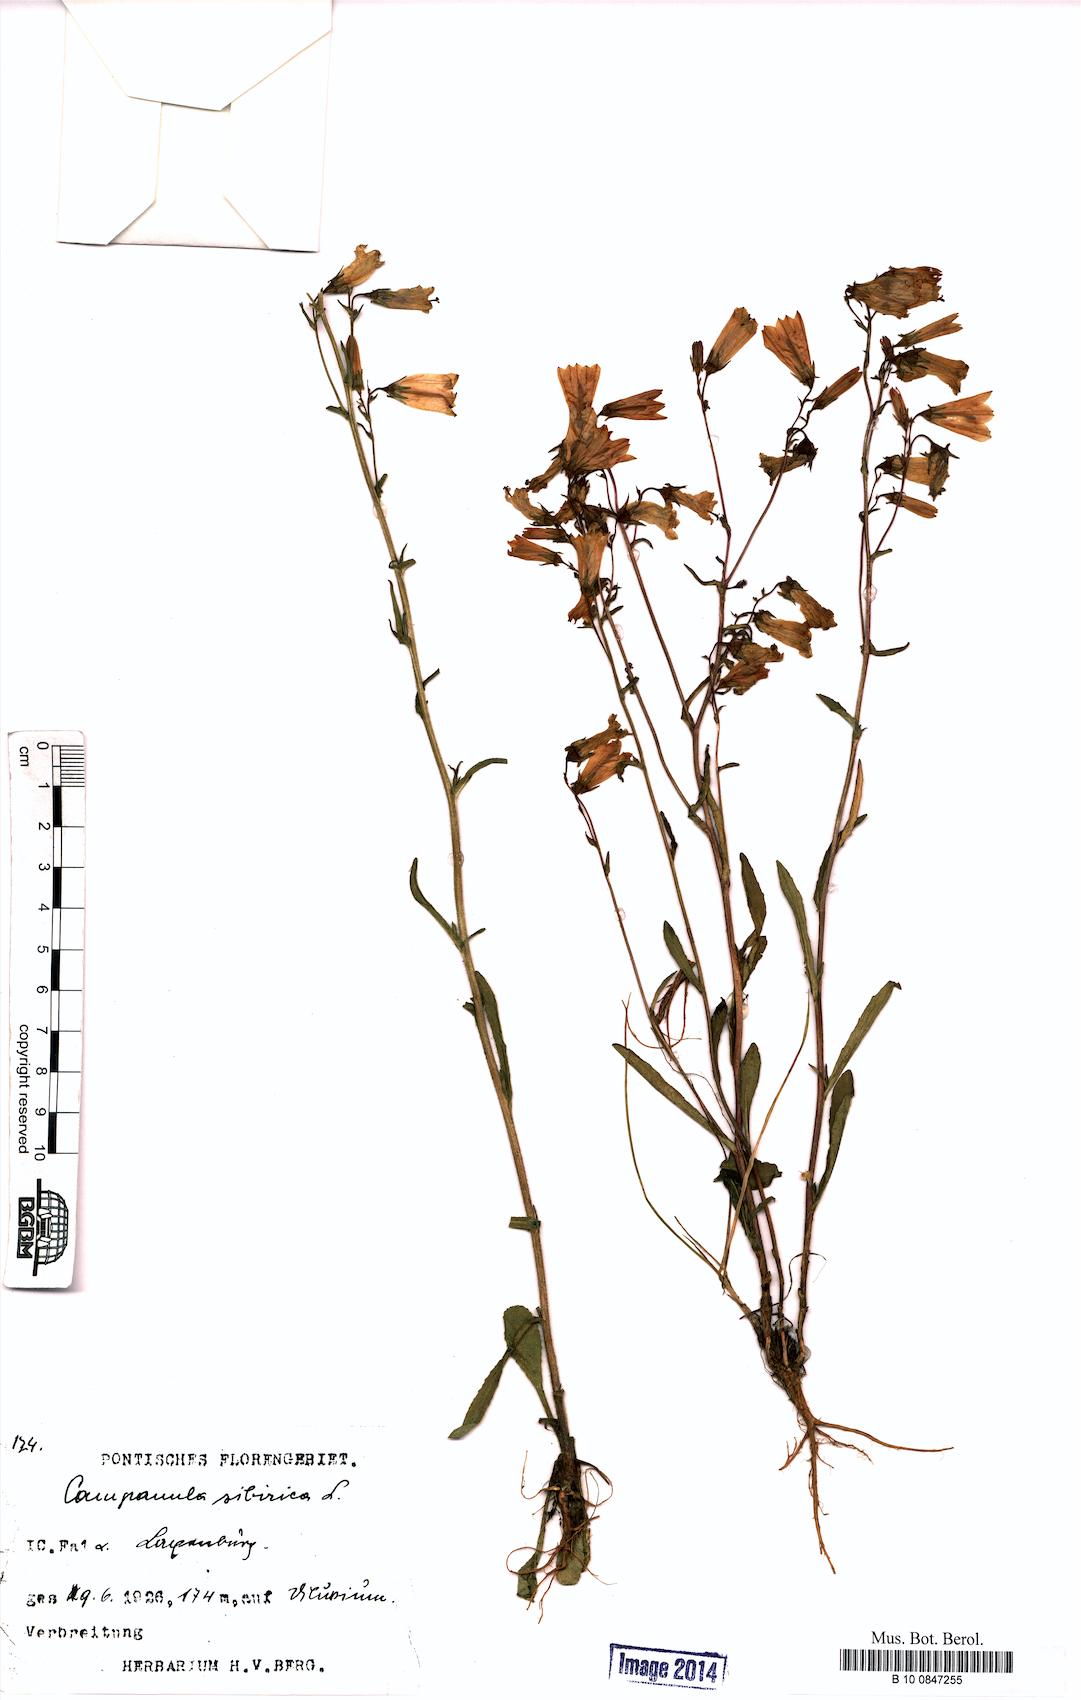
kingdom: Plantae
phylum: Tracheophyta
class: Magnoliopsida
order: Asterales
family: Campanulaceae
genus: Campanula
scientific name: Campanula sibirica
